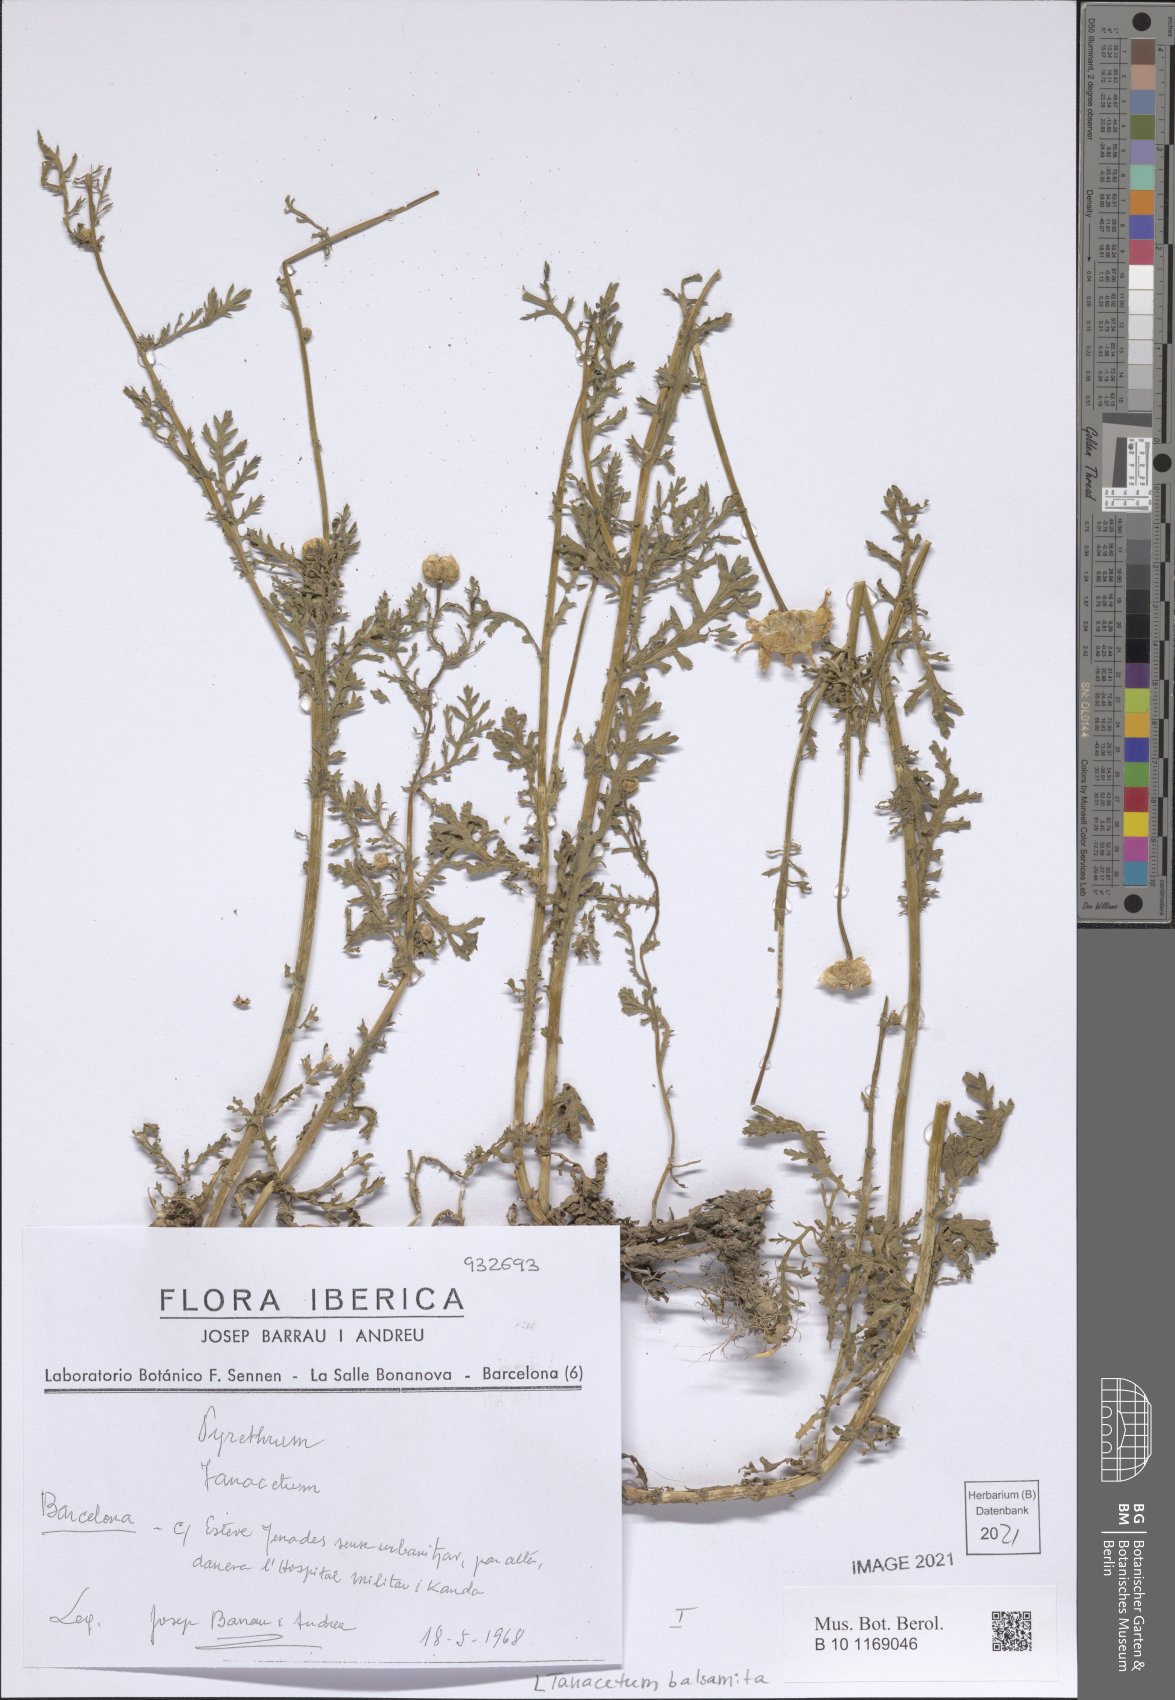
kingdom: Plantae
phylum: Tracheophyta
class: Magnoliopsida
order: Asterales
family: Asteraceae
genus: Tanacetum
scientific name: Tanacetum balsamita
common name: Costmary
